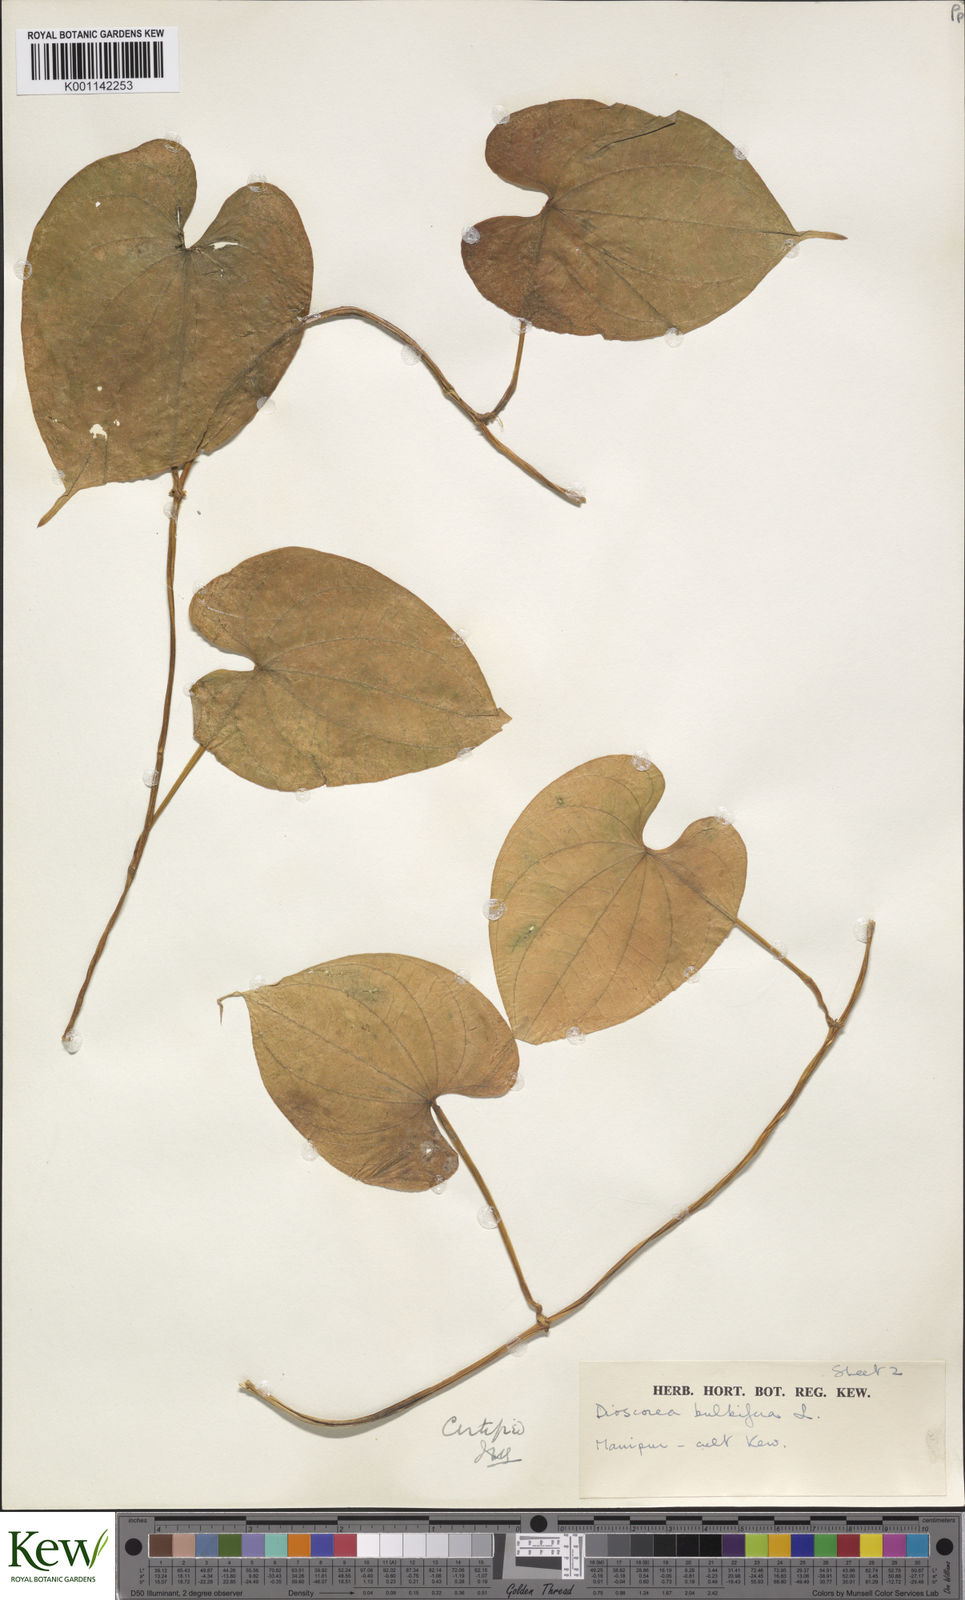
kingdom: Plantae
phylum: Tracheophyta
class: Liliopsida
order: Dioscoreales
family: Dioscoreaceae
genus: Dioscorea
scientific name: Dioscorea bulbifera
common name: Air yam
